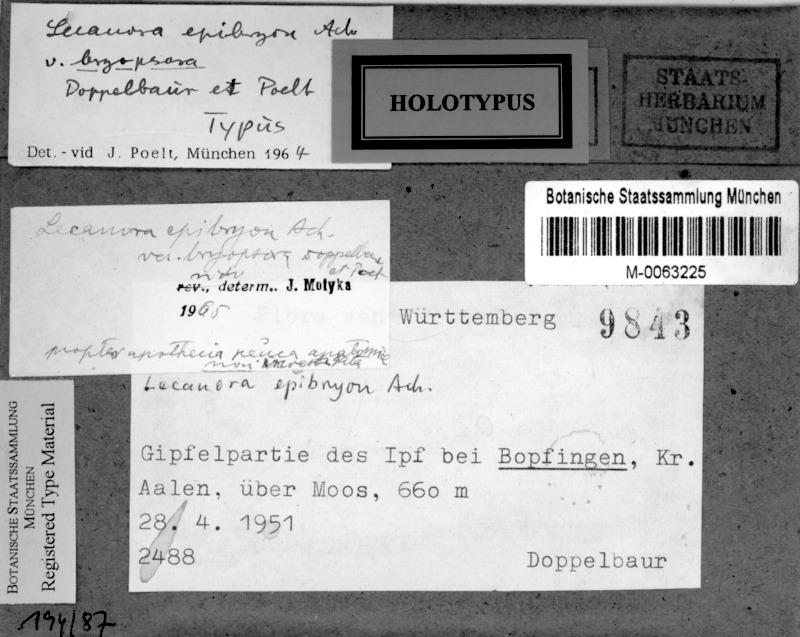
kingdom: Fungi
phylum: Ascomycota
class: Lecanoromycetes
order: Lecanorales
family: Lecanoraceae
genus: Lecanora
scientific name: Lecanora bryopsora
